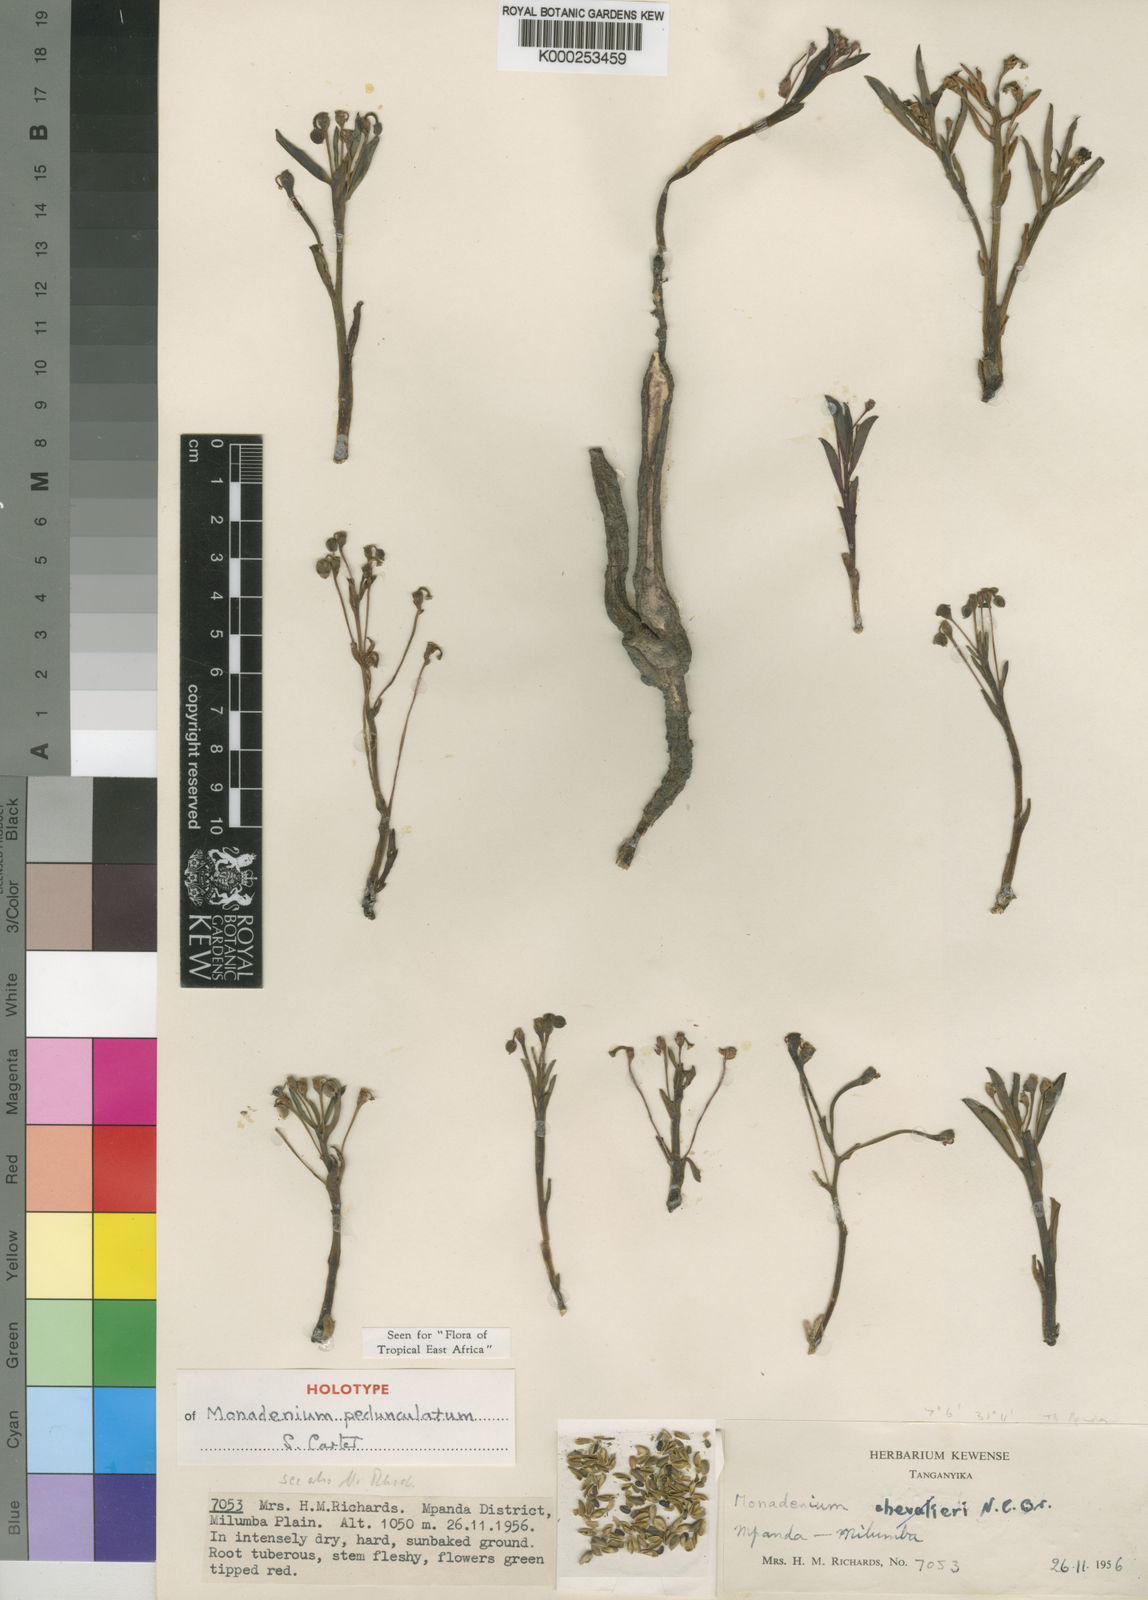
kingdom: Plantae
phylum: Tracheophyta
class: Magnoliopsida
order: Malpighiales
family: Euphorbiaceae
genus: Euphorbia
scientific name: Euphorbia neopedunculata
